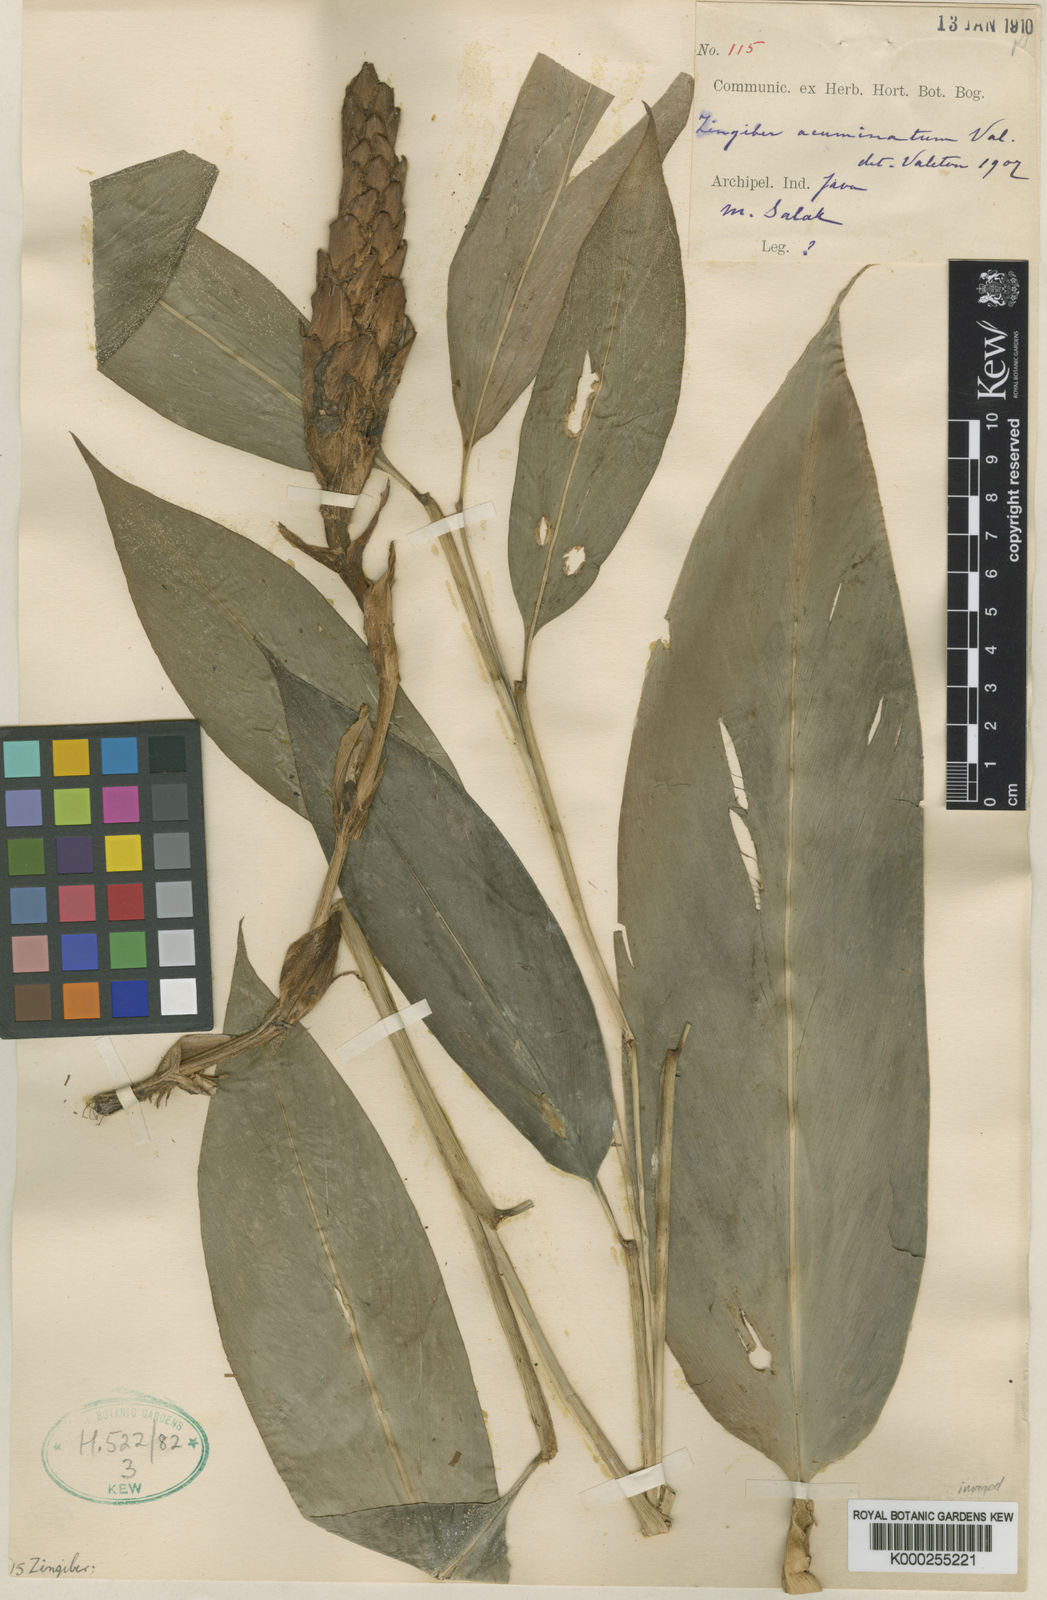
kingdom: Plantae
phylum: Tracheophyta
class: Liliopsida
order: Zingiberales
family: Zingiberaceae
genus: Zingiber
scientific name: Zingiber acuminatum
